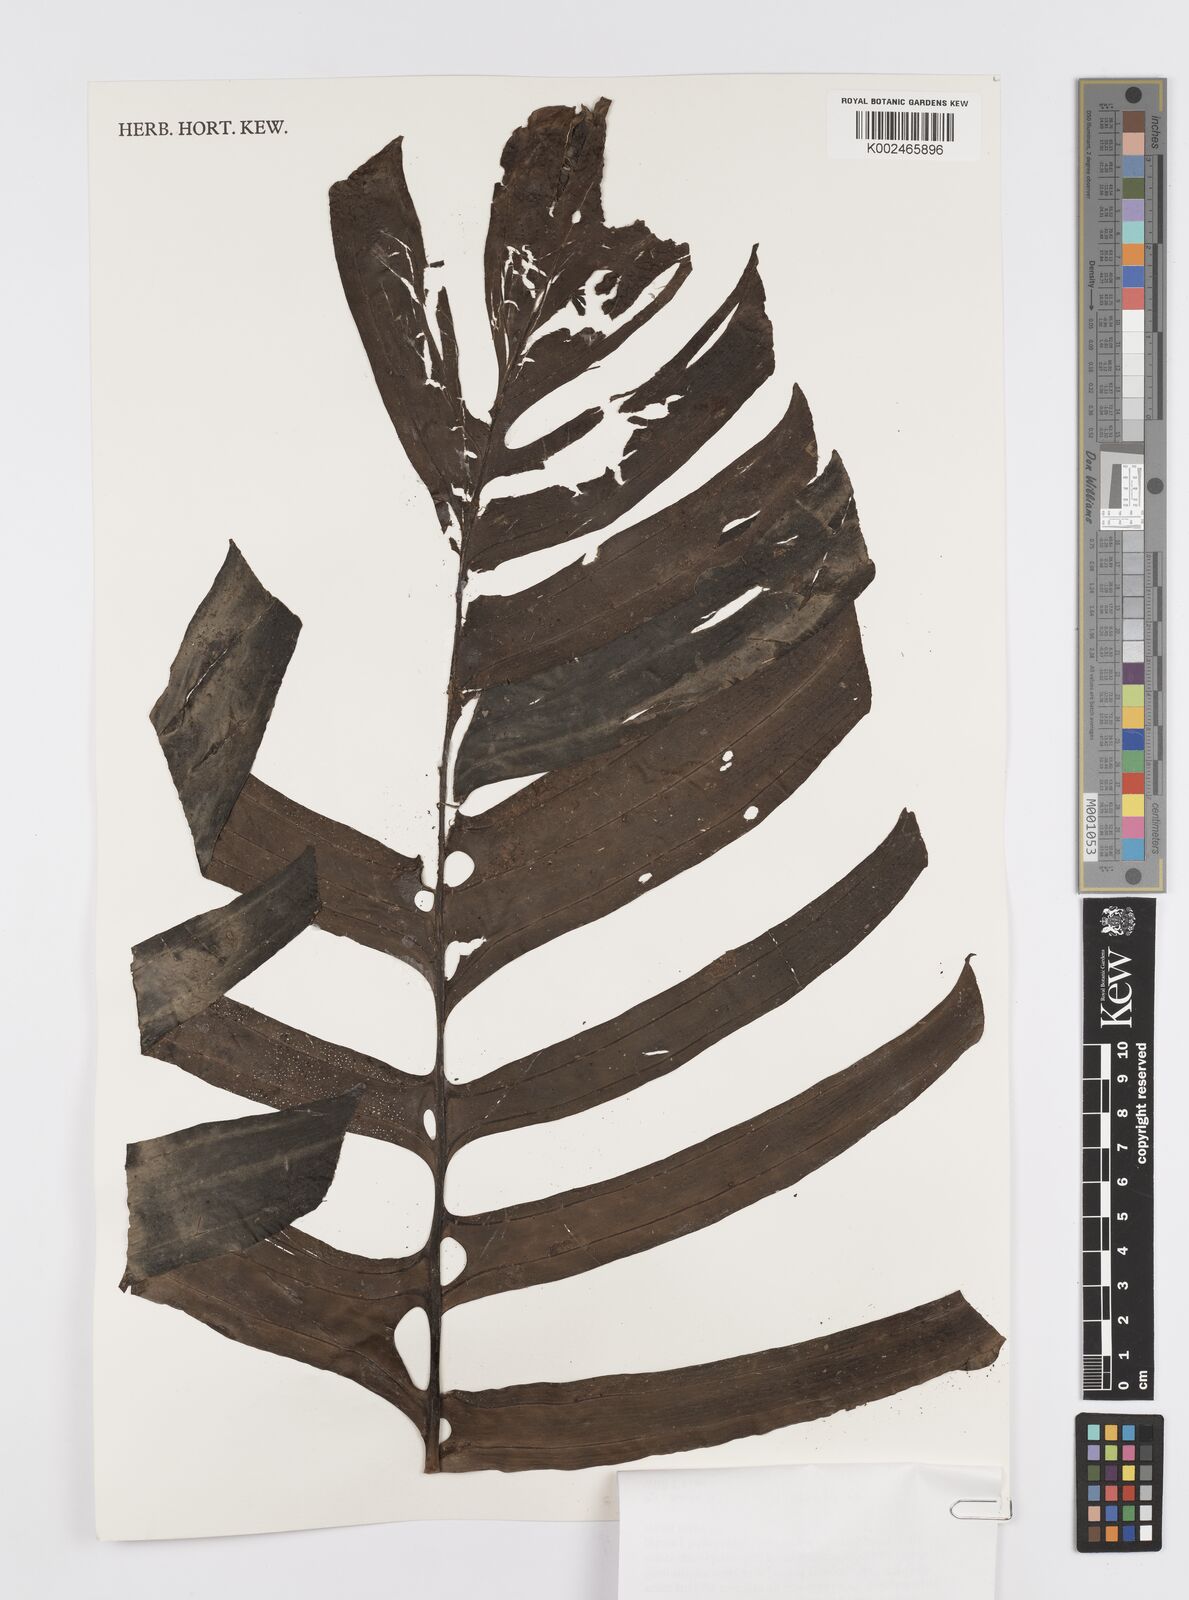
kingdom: Plantae
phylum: Tracheophyta
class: Liliopsida
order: Alismatales
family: Araceae
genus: Rhaphidophora
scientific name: Rhaphidophora korthalsii
